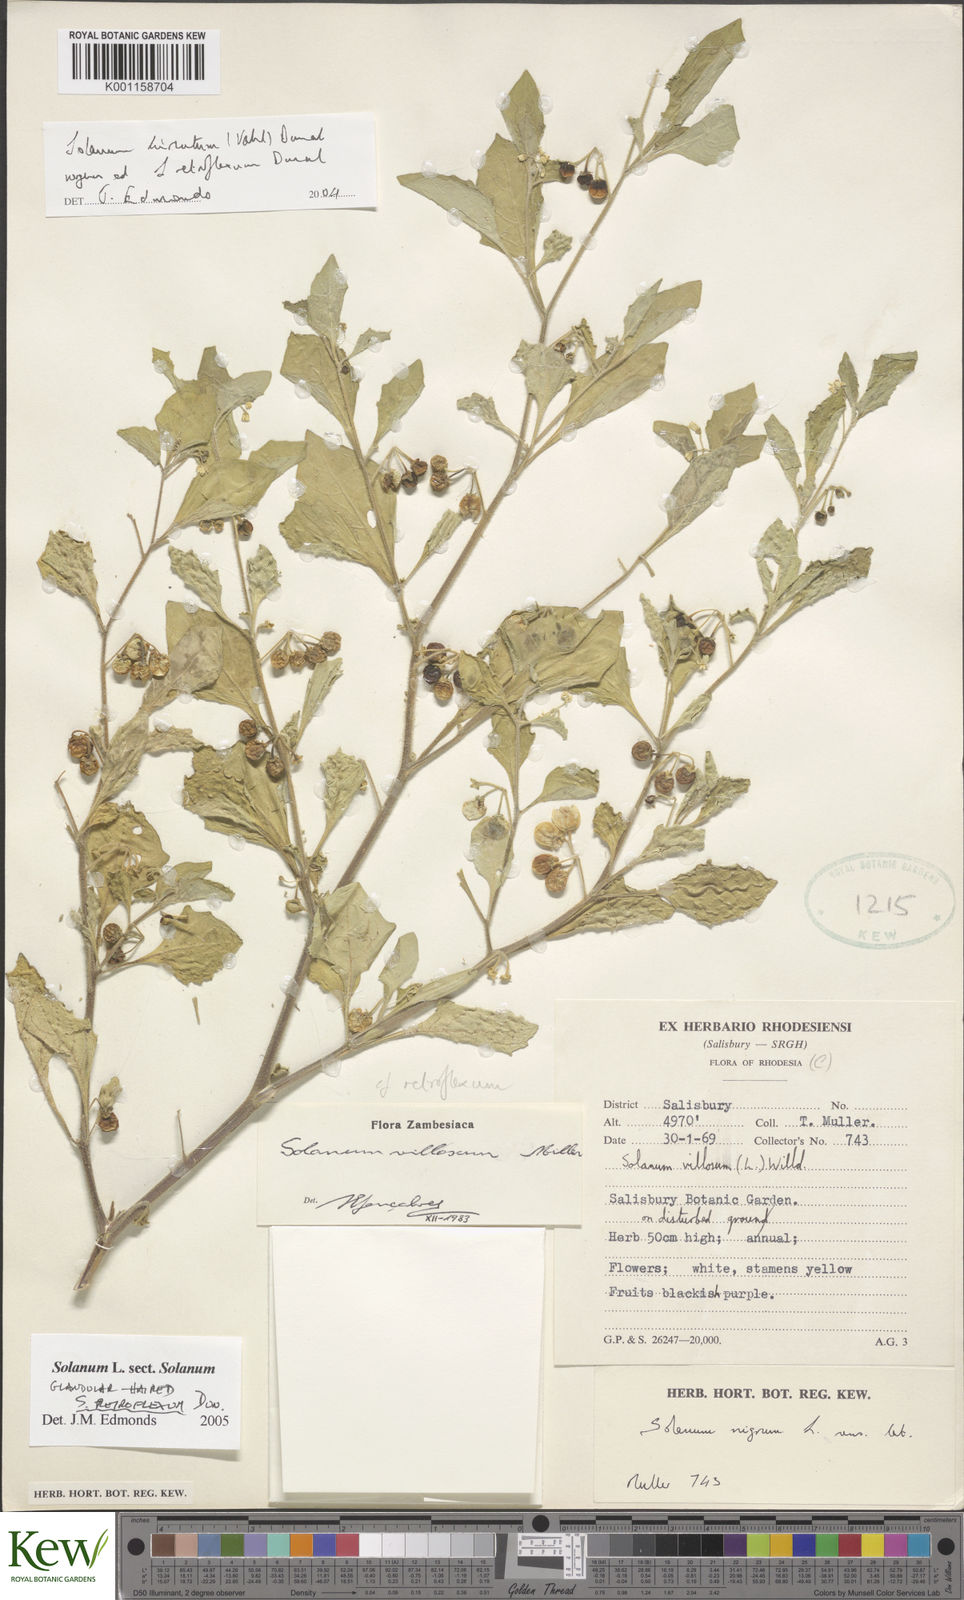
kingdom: Plantae
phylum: Tracheophyta
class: Magnoliopsida
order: Solanales
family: Solanaceae
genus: Solanum
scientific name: Solanum retroflexum
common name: Wonderberry
